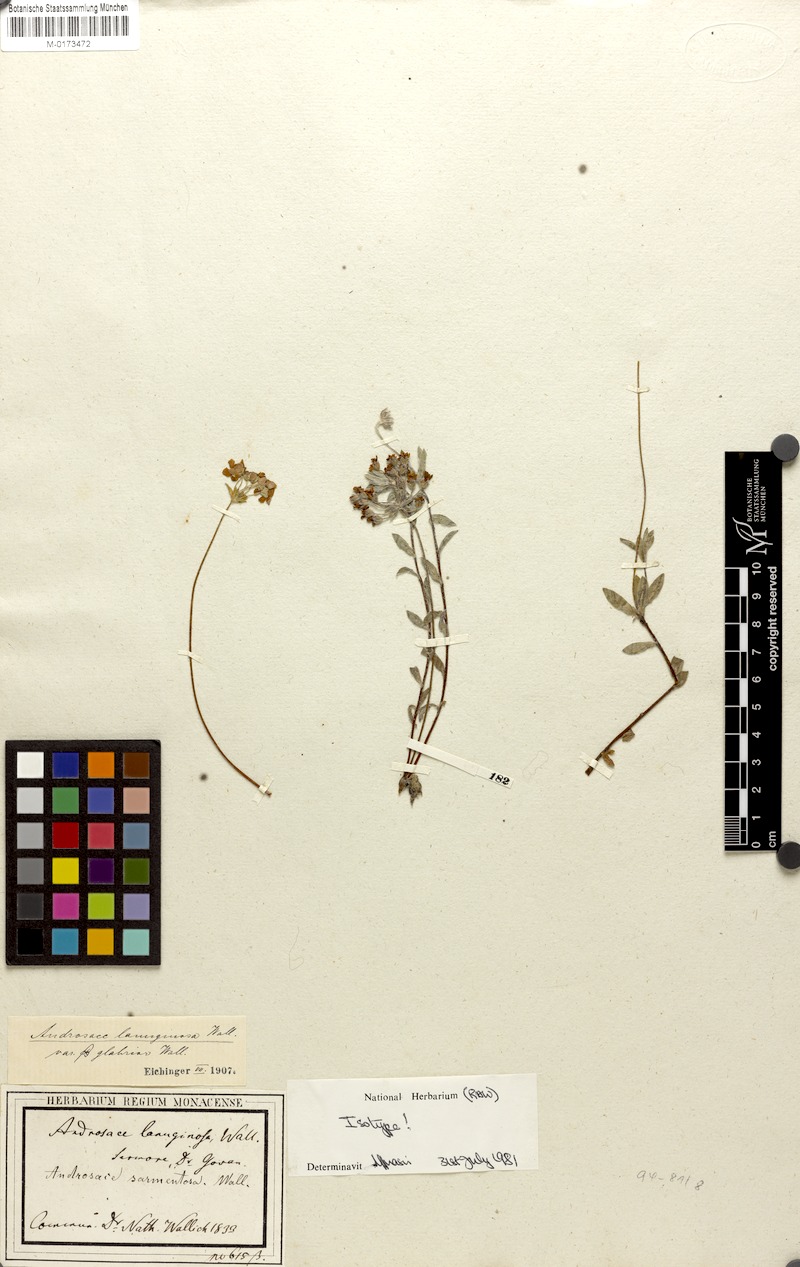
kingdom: Plantae
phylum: Tracheophyta
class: Magnoliopsida
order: Ericales
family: Primulaceae
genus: Androsace
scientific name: Androsace lanuginosa
